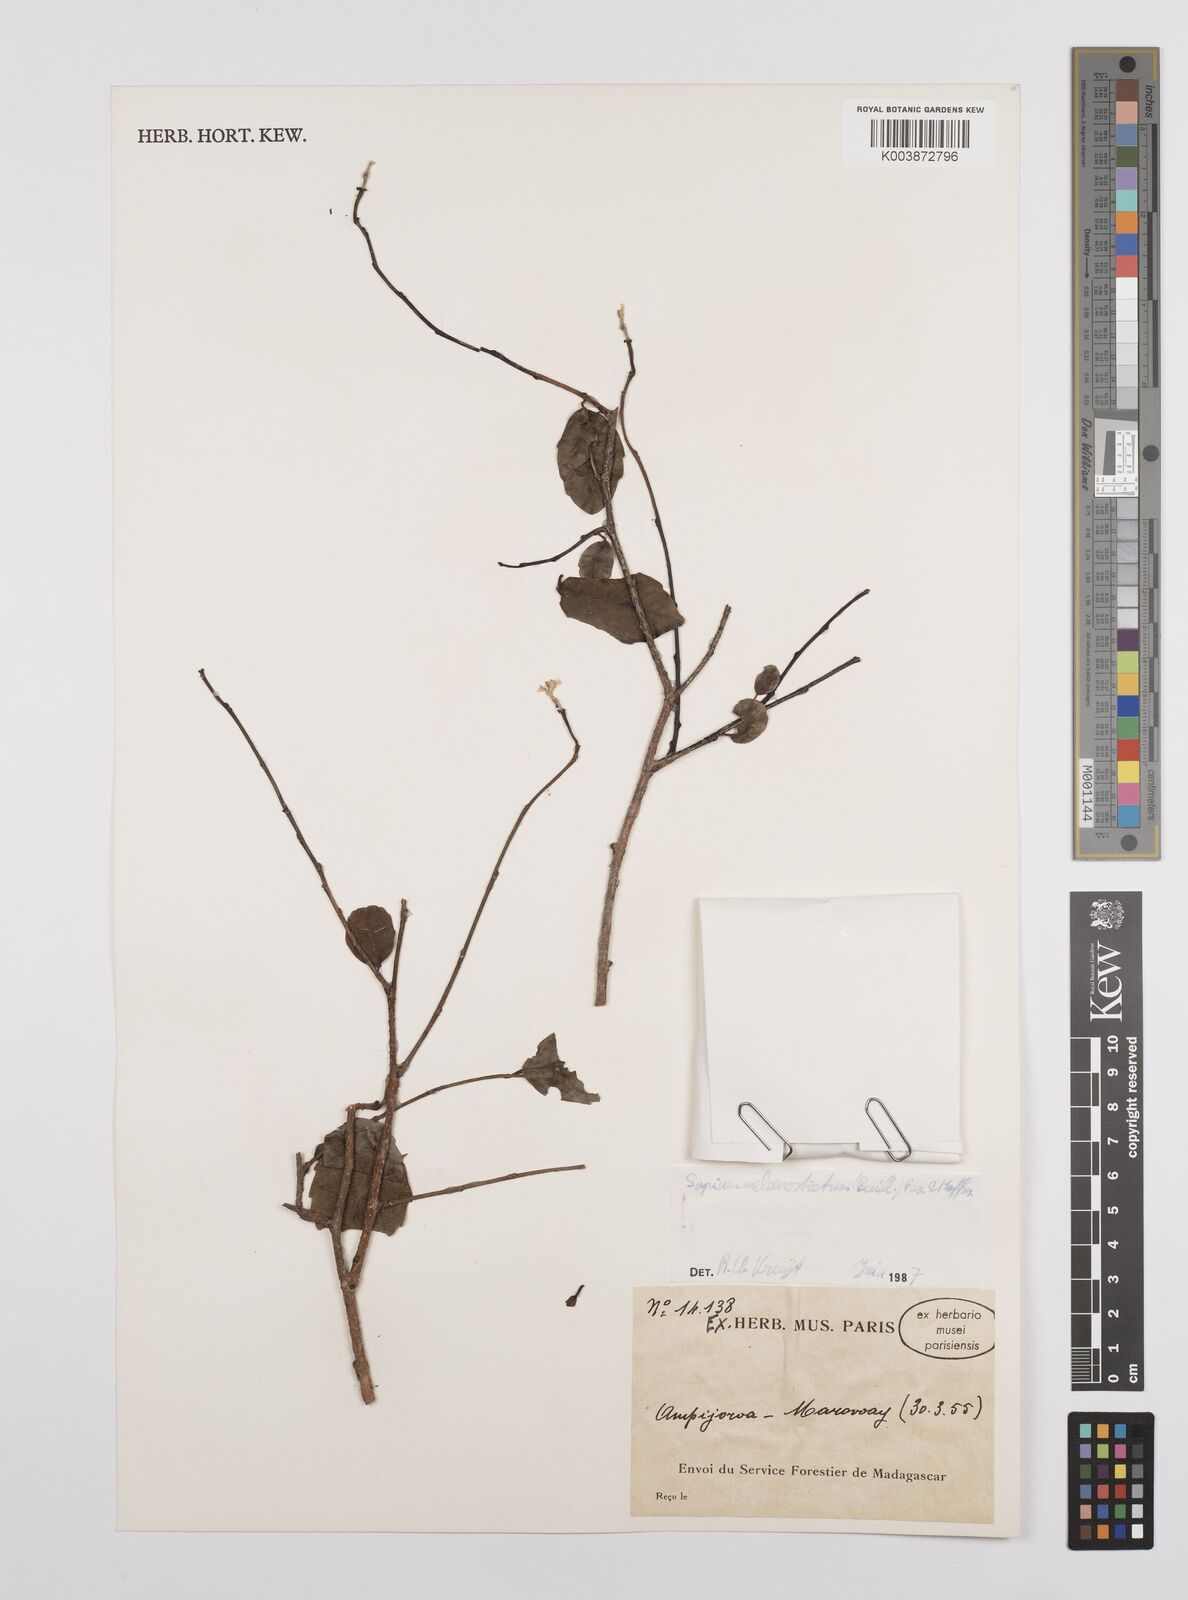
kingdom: Plantae
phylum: Tracheophyta
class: Magnoliopsida
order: Malpighiales
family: Euphorbiaceae
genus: Sclerocroton
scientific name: Sclerocroton melanostictus
